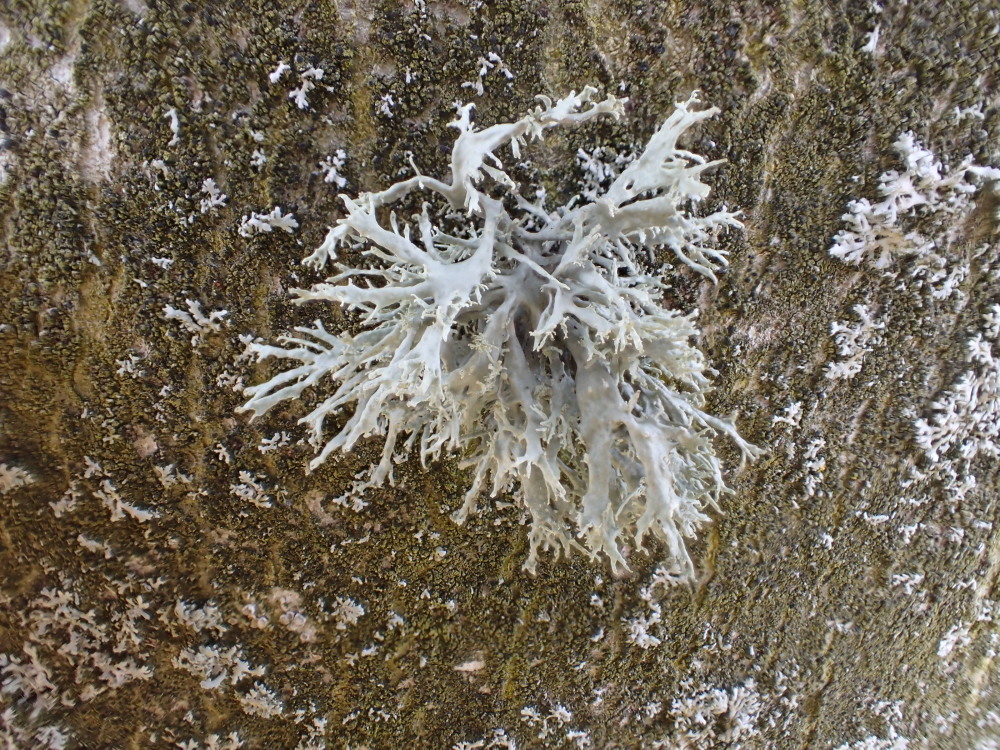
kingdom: Fungi
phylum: Ascomycota
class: Lecanoromycetes
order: Lecanorales
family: Ramalinaceae
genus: Ramalina
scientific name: Ramalina farinacea
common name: melet grenlav
